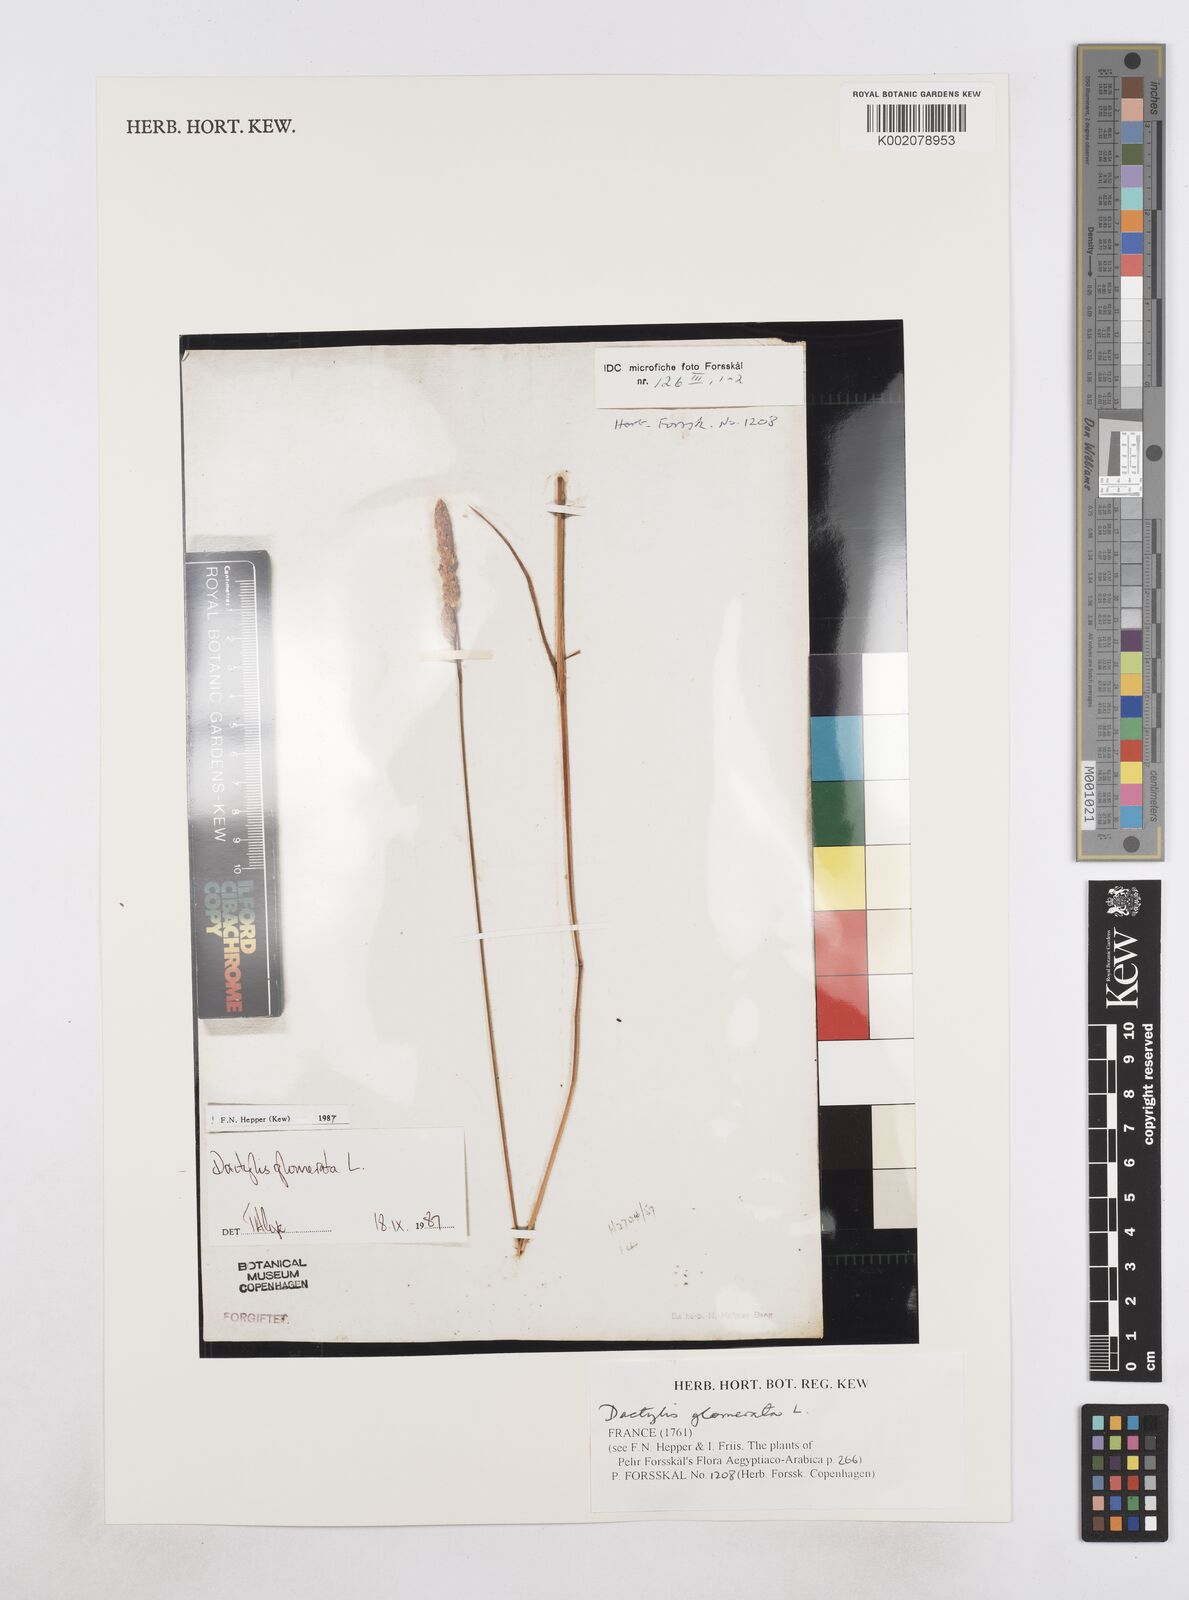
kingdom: Plantae
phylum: Tracheophyta
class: Liliopsida
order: Poales
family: Poaceae
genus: Dactylis
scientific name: Dactylis glomerata
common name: Orchardgrass
